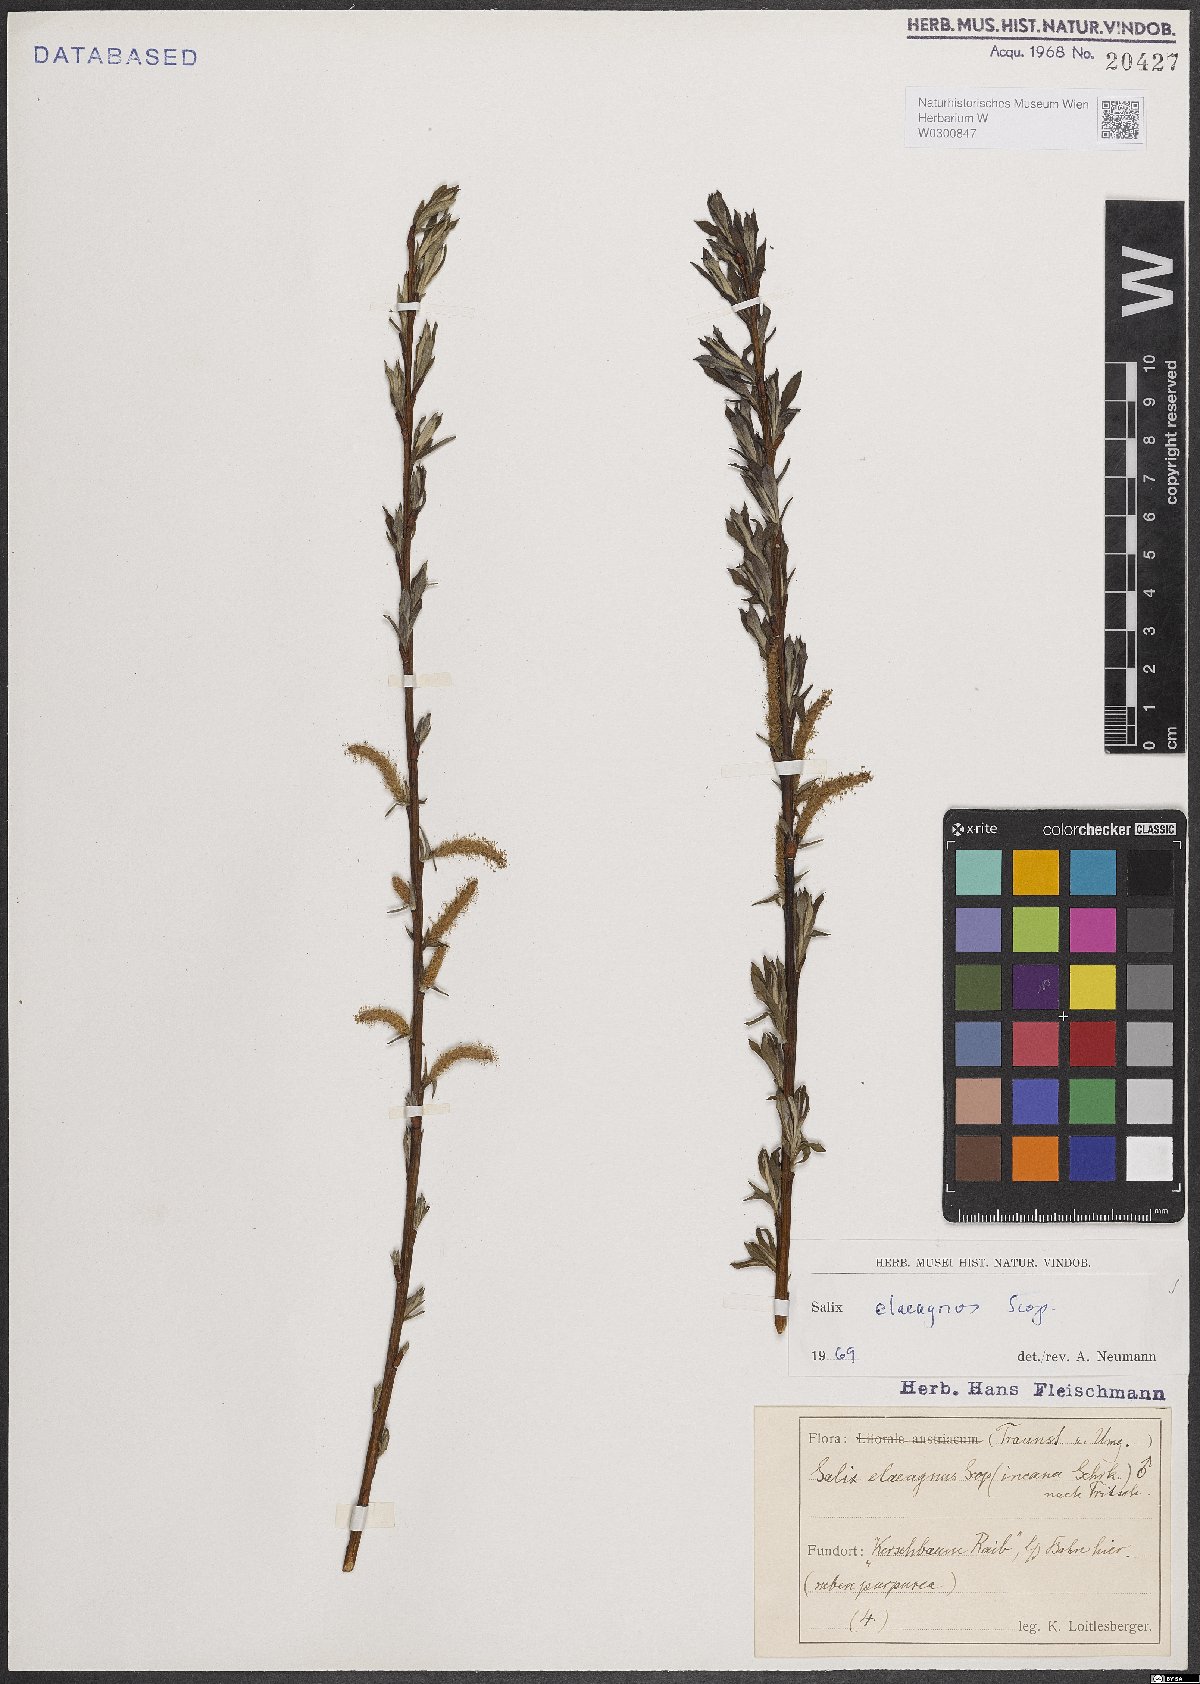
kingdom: Plantae
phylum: Tracheophyta
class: Magnoliopsida
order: Malpighiales
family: Salicaceae
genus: Salix
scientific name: Salix eleagnos
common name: Elaeagnus willow
